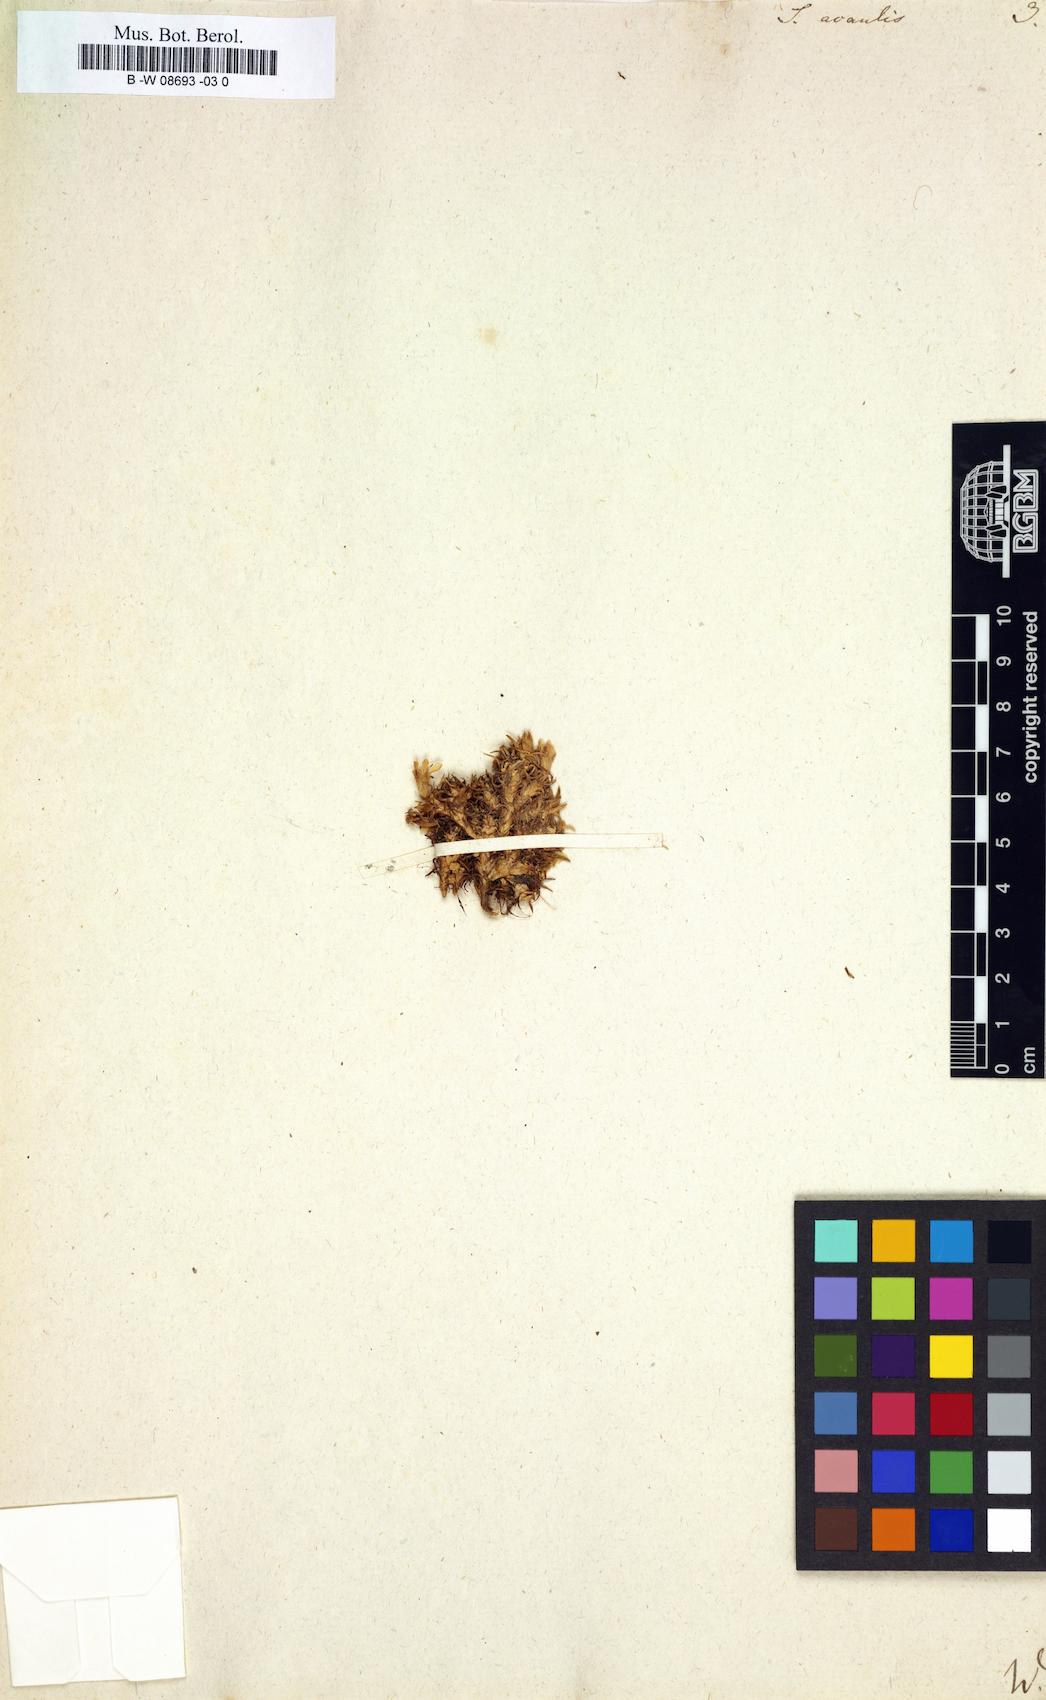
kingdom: Plantae
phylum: Tracheophyta
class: Magnoliopsida
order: Caryophyllales
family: Caryophyllaceae
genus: Silene
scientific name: Silene acaulis
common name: Moss campion
